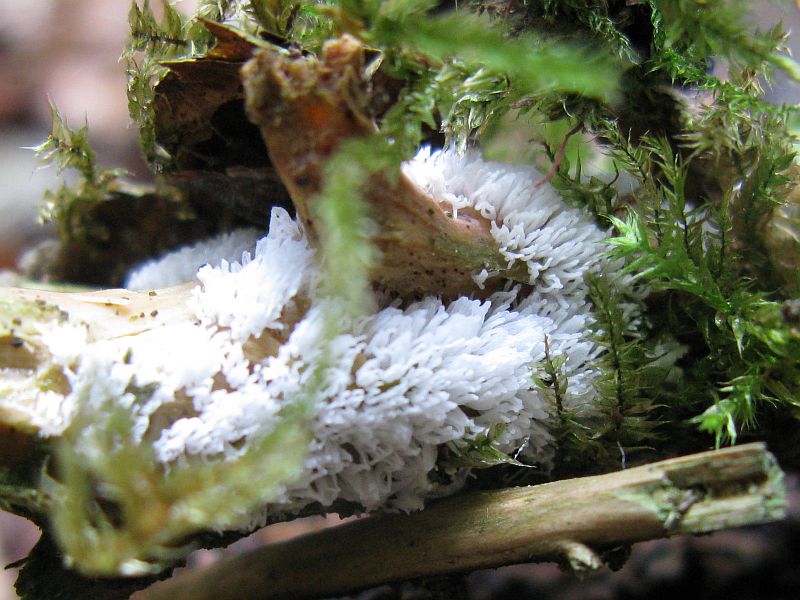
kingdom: Protozoa
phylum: Mycetozoa
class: Protosteliomycetes
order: Ceratiomyxales
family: Ceratiomyxaceae
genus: Ceratiomyxa
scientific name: Ceratiomyxa fruticulosa
